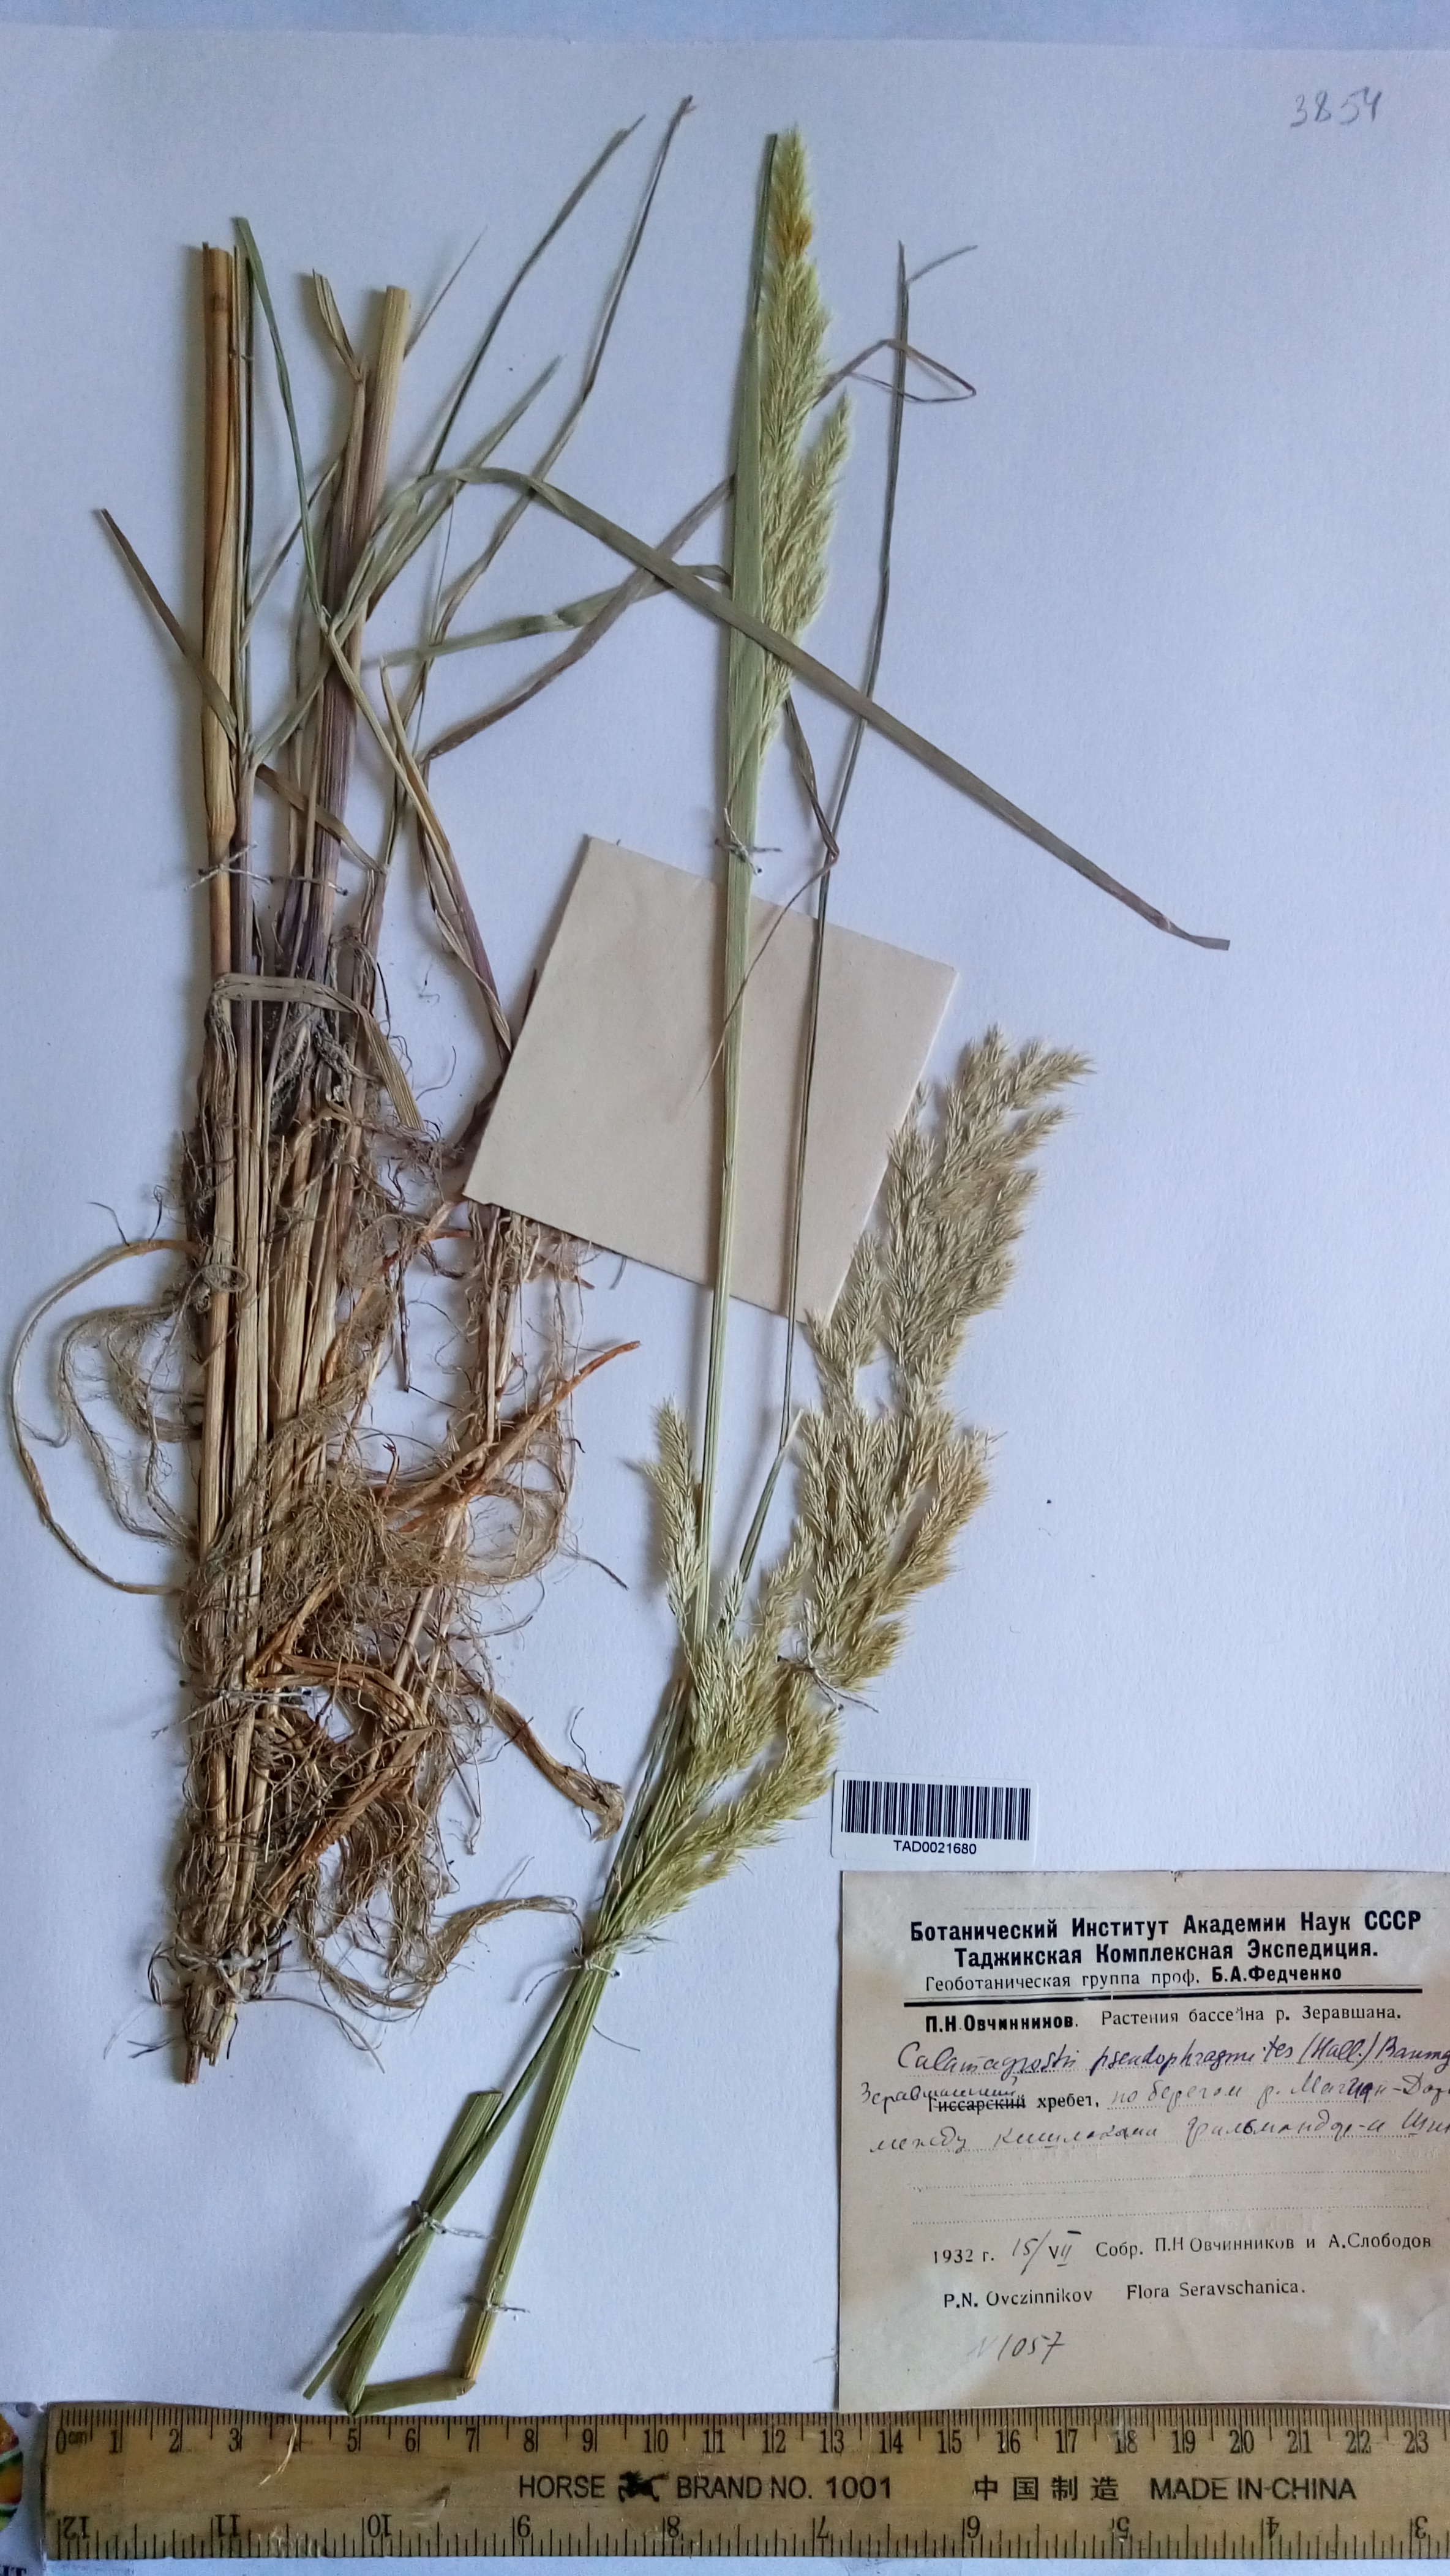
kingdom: Plantae
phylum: Tracheophyta
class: Liliopsida
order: Poales
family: Poaceae
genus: Calamagrostis
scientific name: Calamagrostis pseudophragmites
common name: Coastal small-reed
